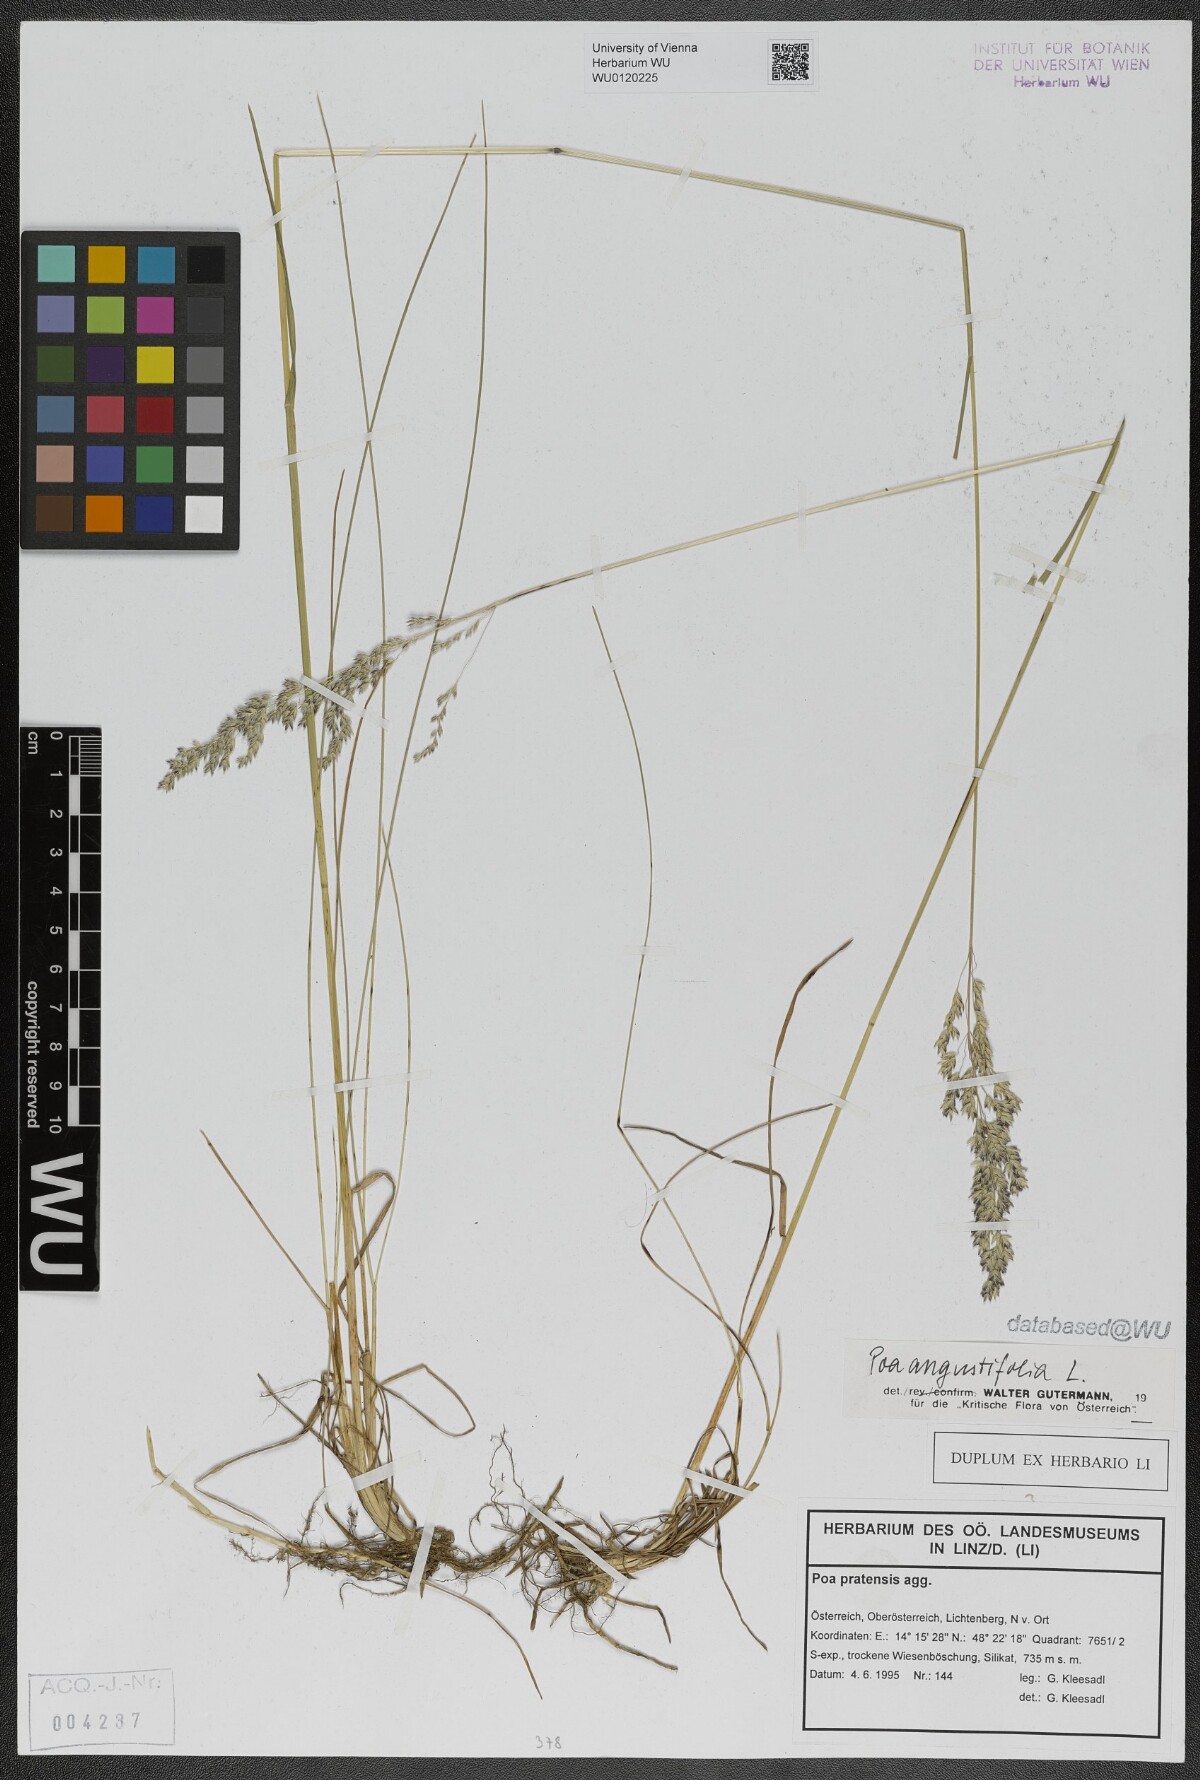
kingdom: Plantae
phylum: Tracheophyta
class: Liliopsida
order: Poales
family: Poaceae
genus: Poa
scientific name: Poa pratensis
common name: Kentucky bluegrass
